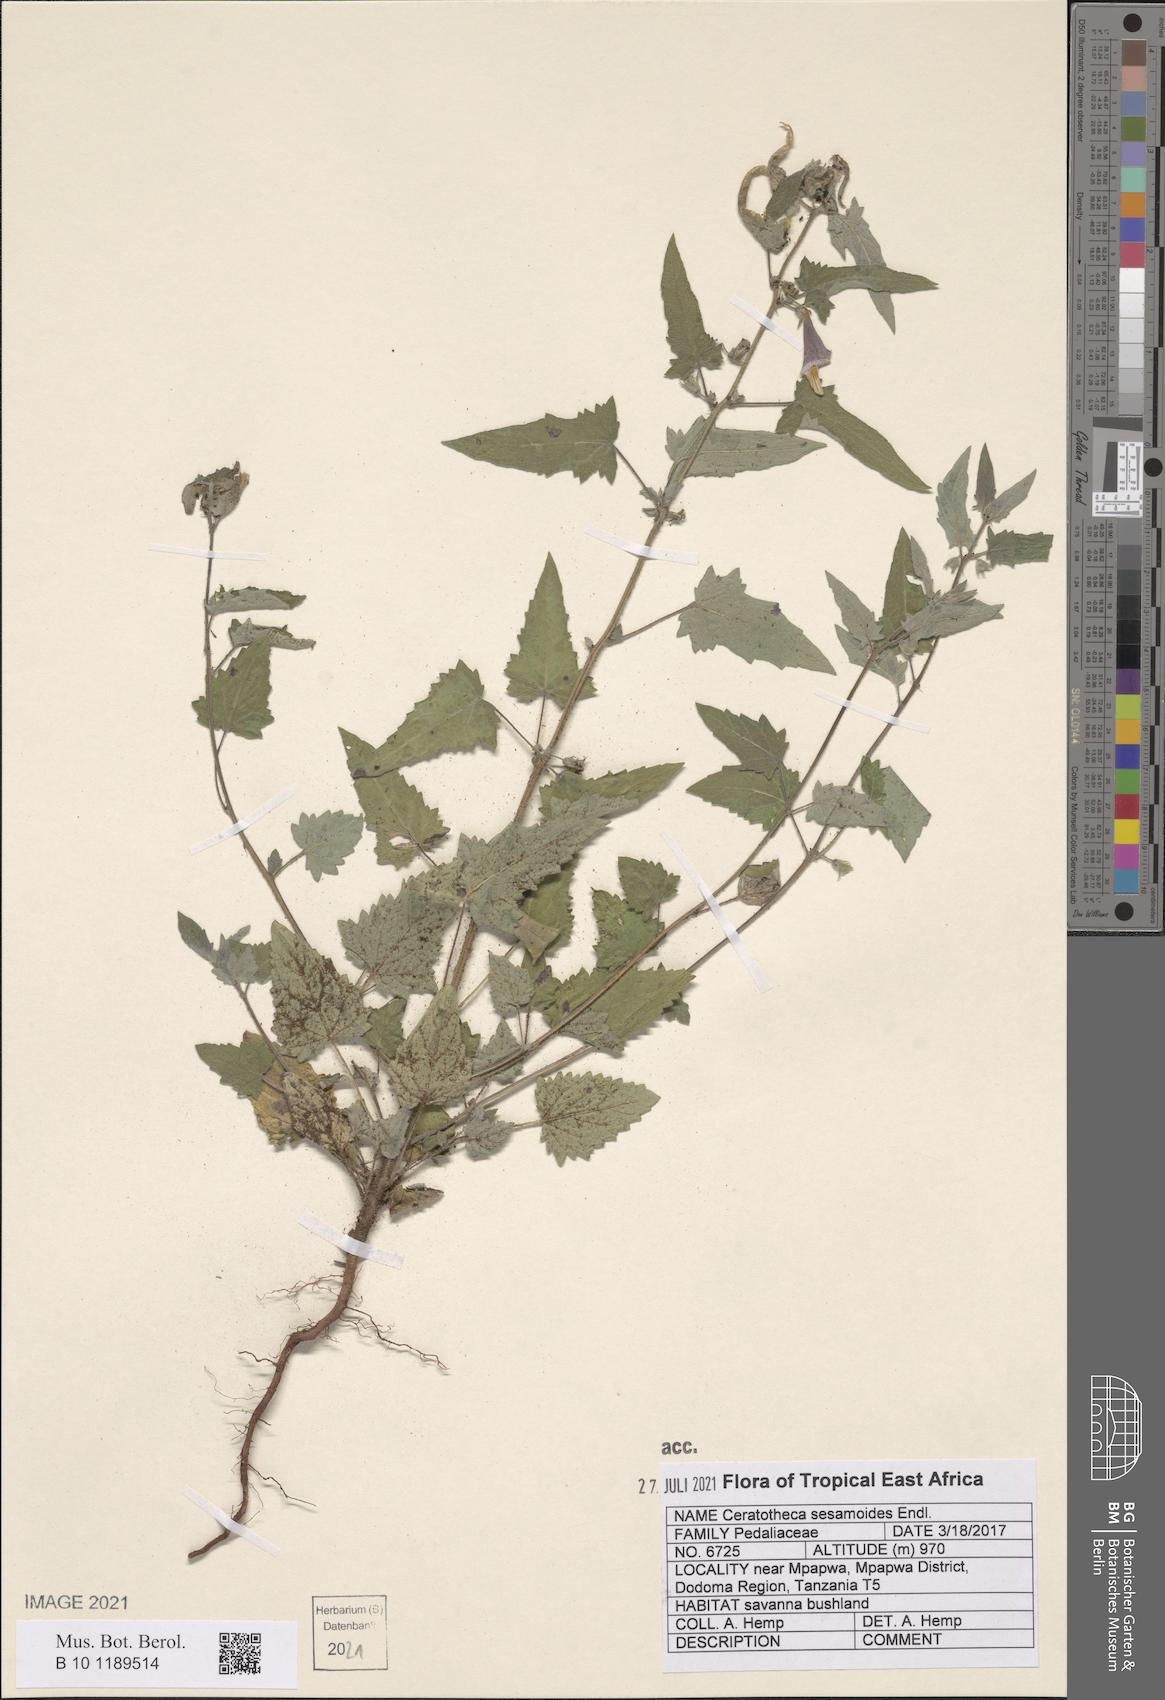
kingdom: Plantae
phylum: Tracheophyta
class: Magnoliopsida
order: Lamiales
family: Pedaliaceae
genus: Sesamum
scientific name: Sesamum sesamoides
